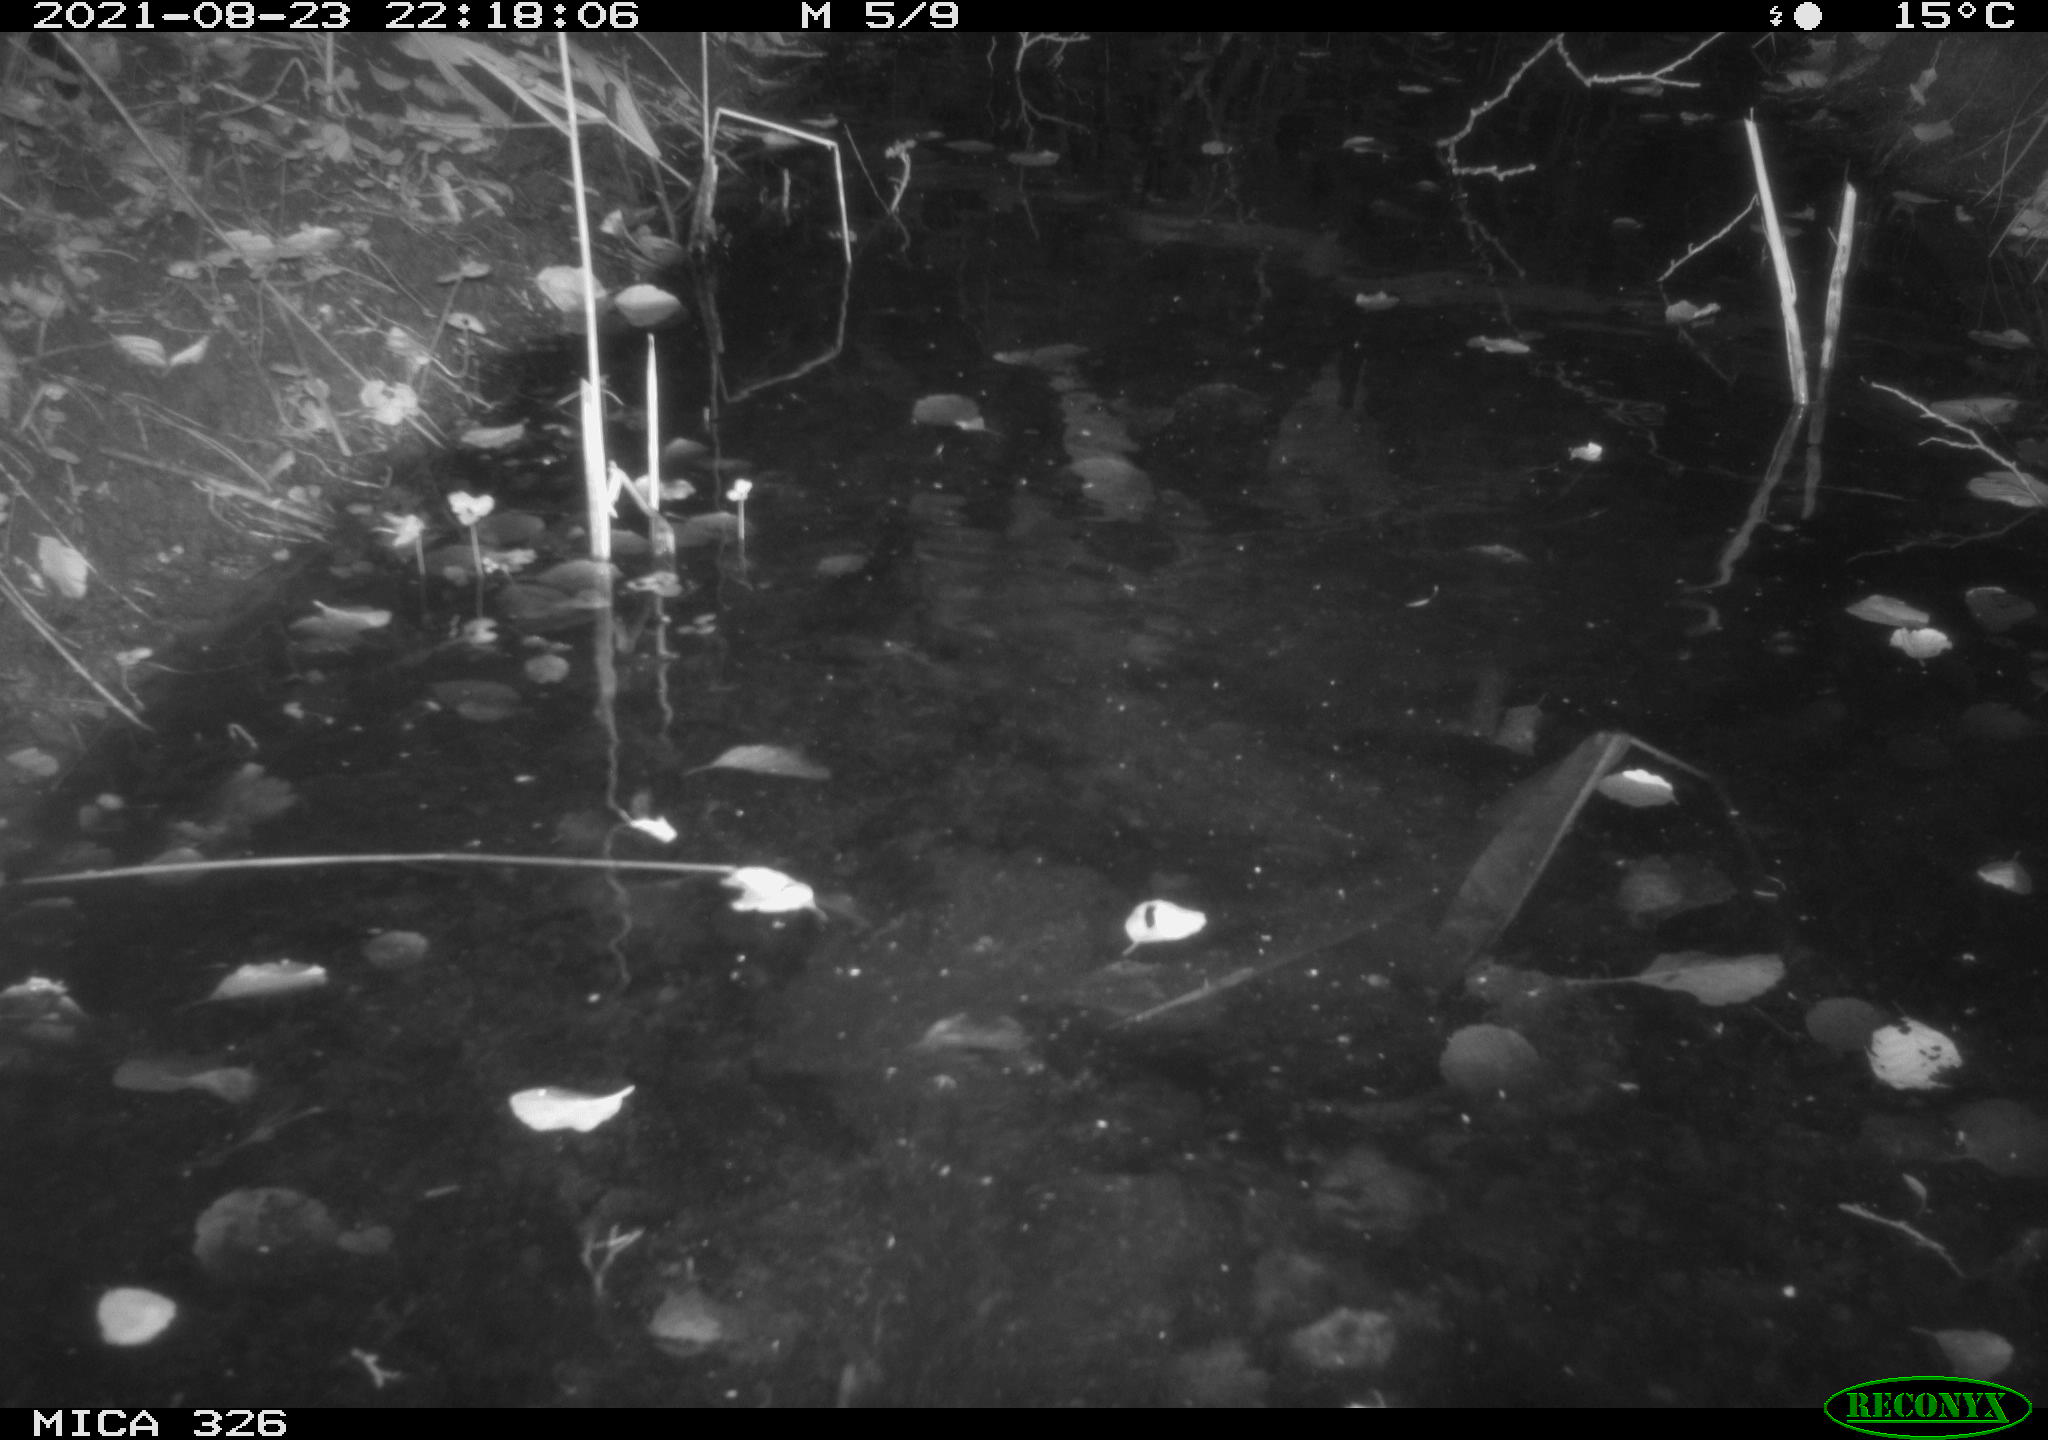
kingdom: Animalia
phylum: Chordata
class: Mammalia
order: Rodentia
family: Myocastoridae
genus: Myocastor
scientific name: Myocastor coypus
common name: Coypu
